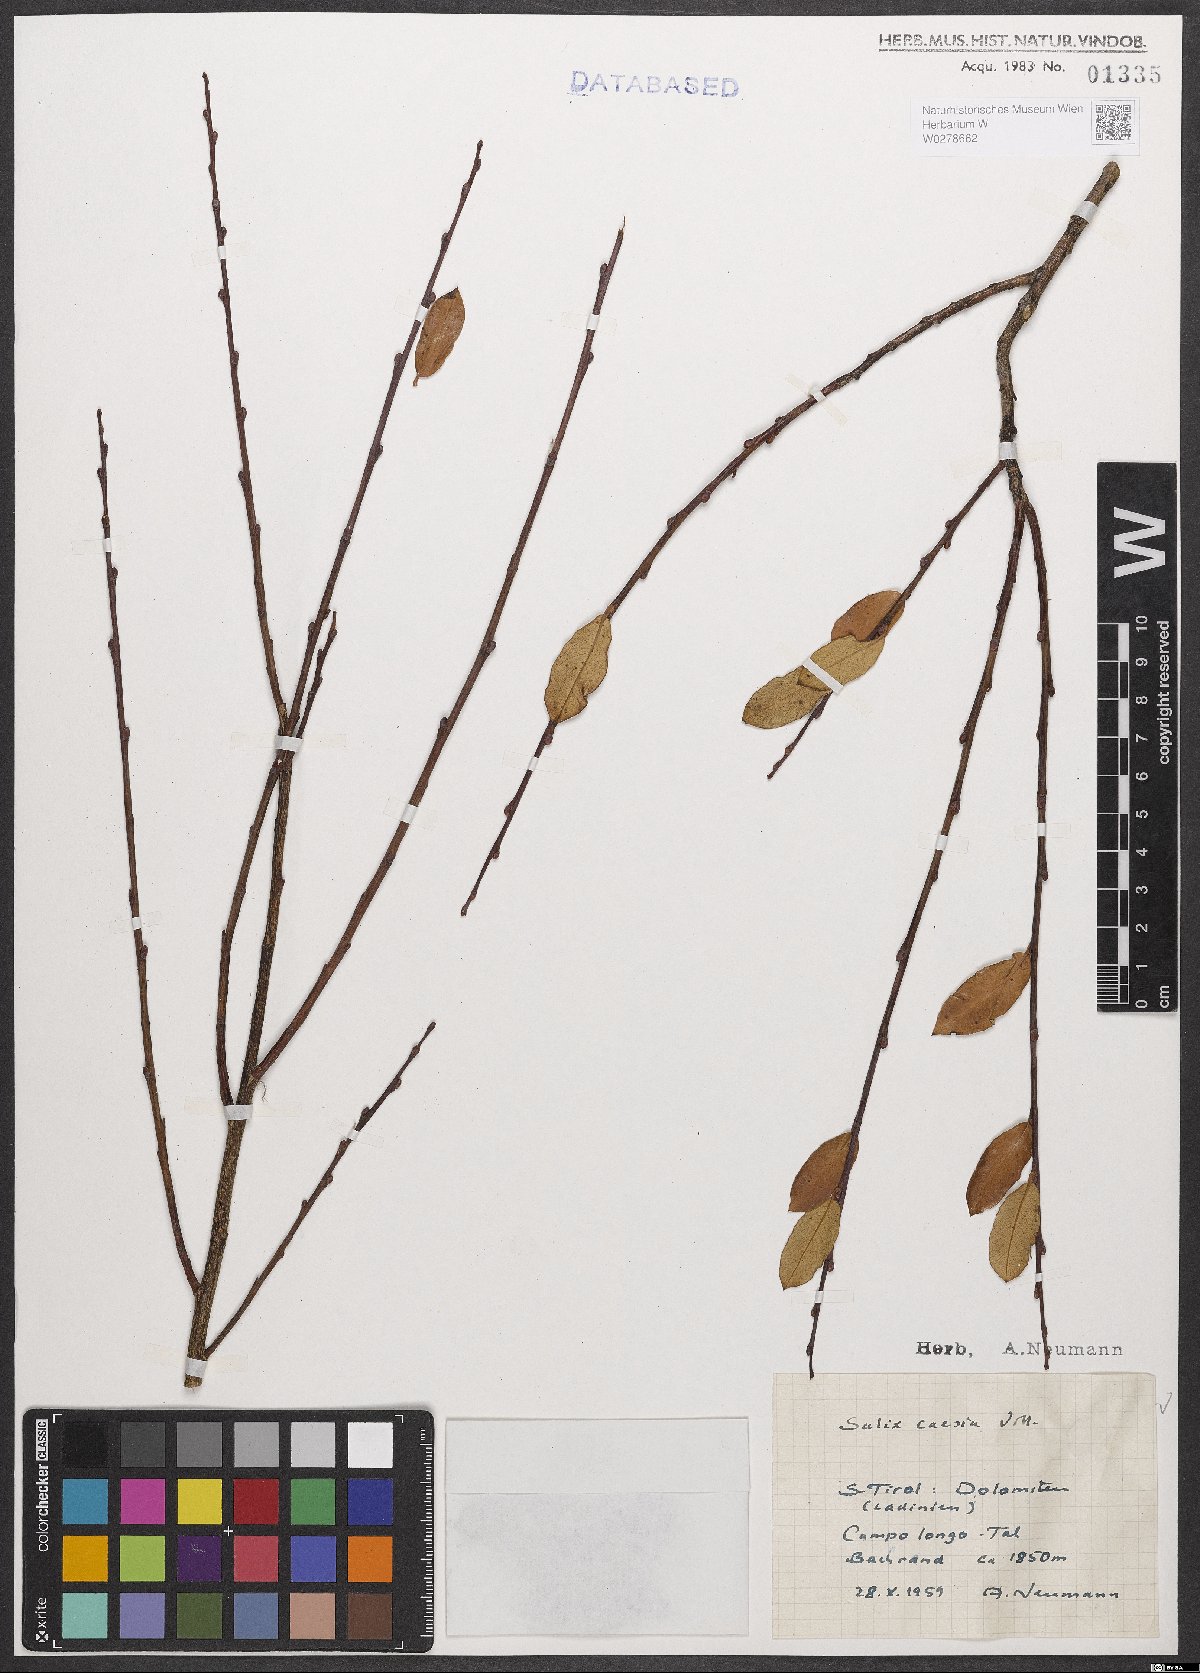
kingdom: Plantae
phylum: Tracheophyta
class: Magnoliopsida
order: Malpighiales
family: Salicaceae
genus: Salix
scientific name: Salix caesia
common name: Blue willow
